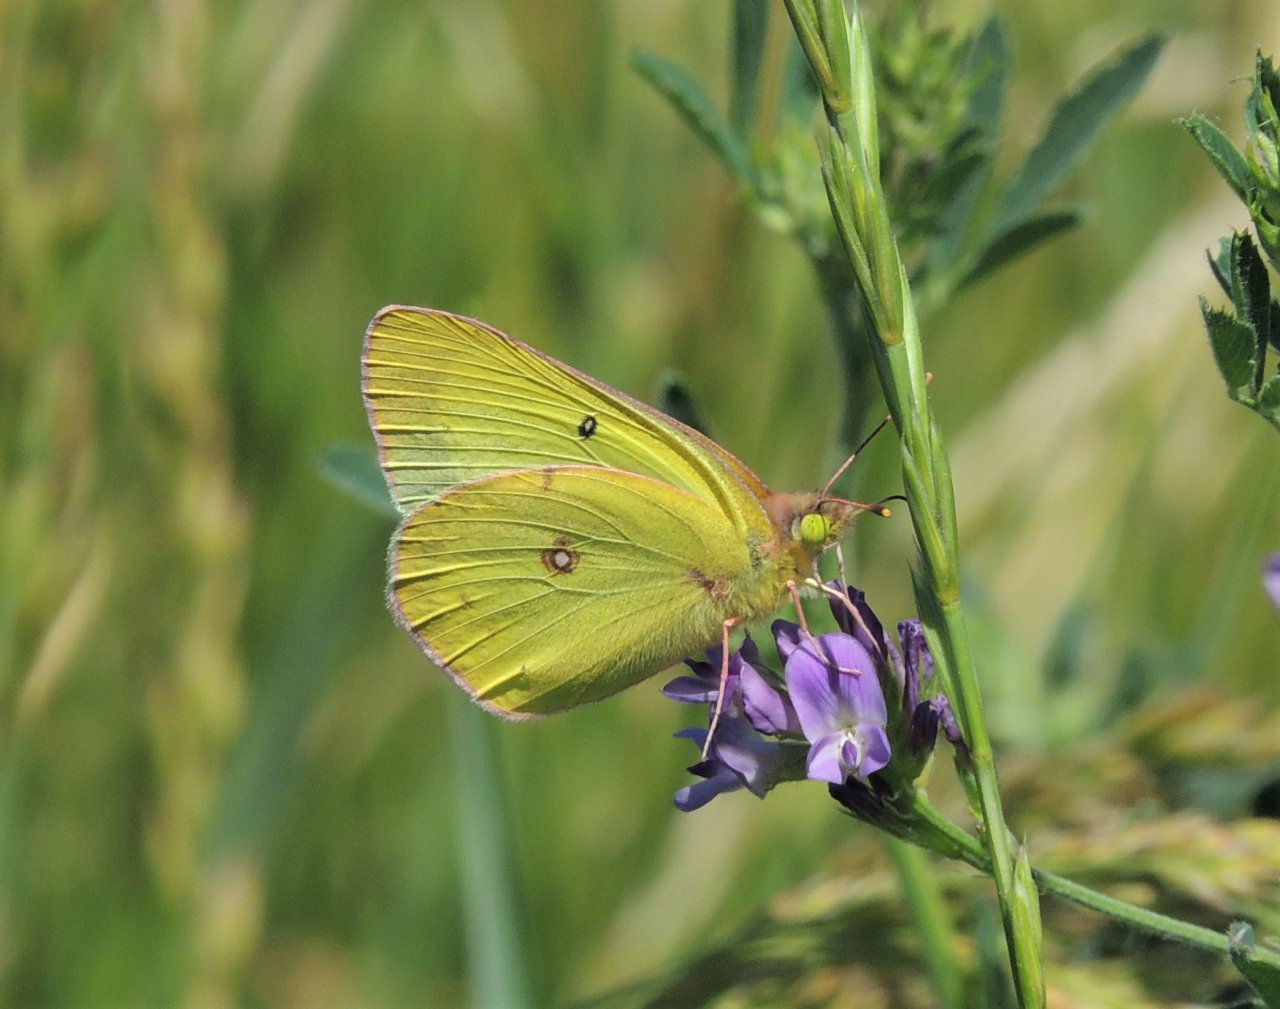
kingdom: Animalia
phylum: Arthropoda
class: Insecta
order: Lepidoptera
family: Pieridae
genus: Colias
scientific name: Colias eurytheme
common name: Orange Sulphur
